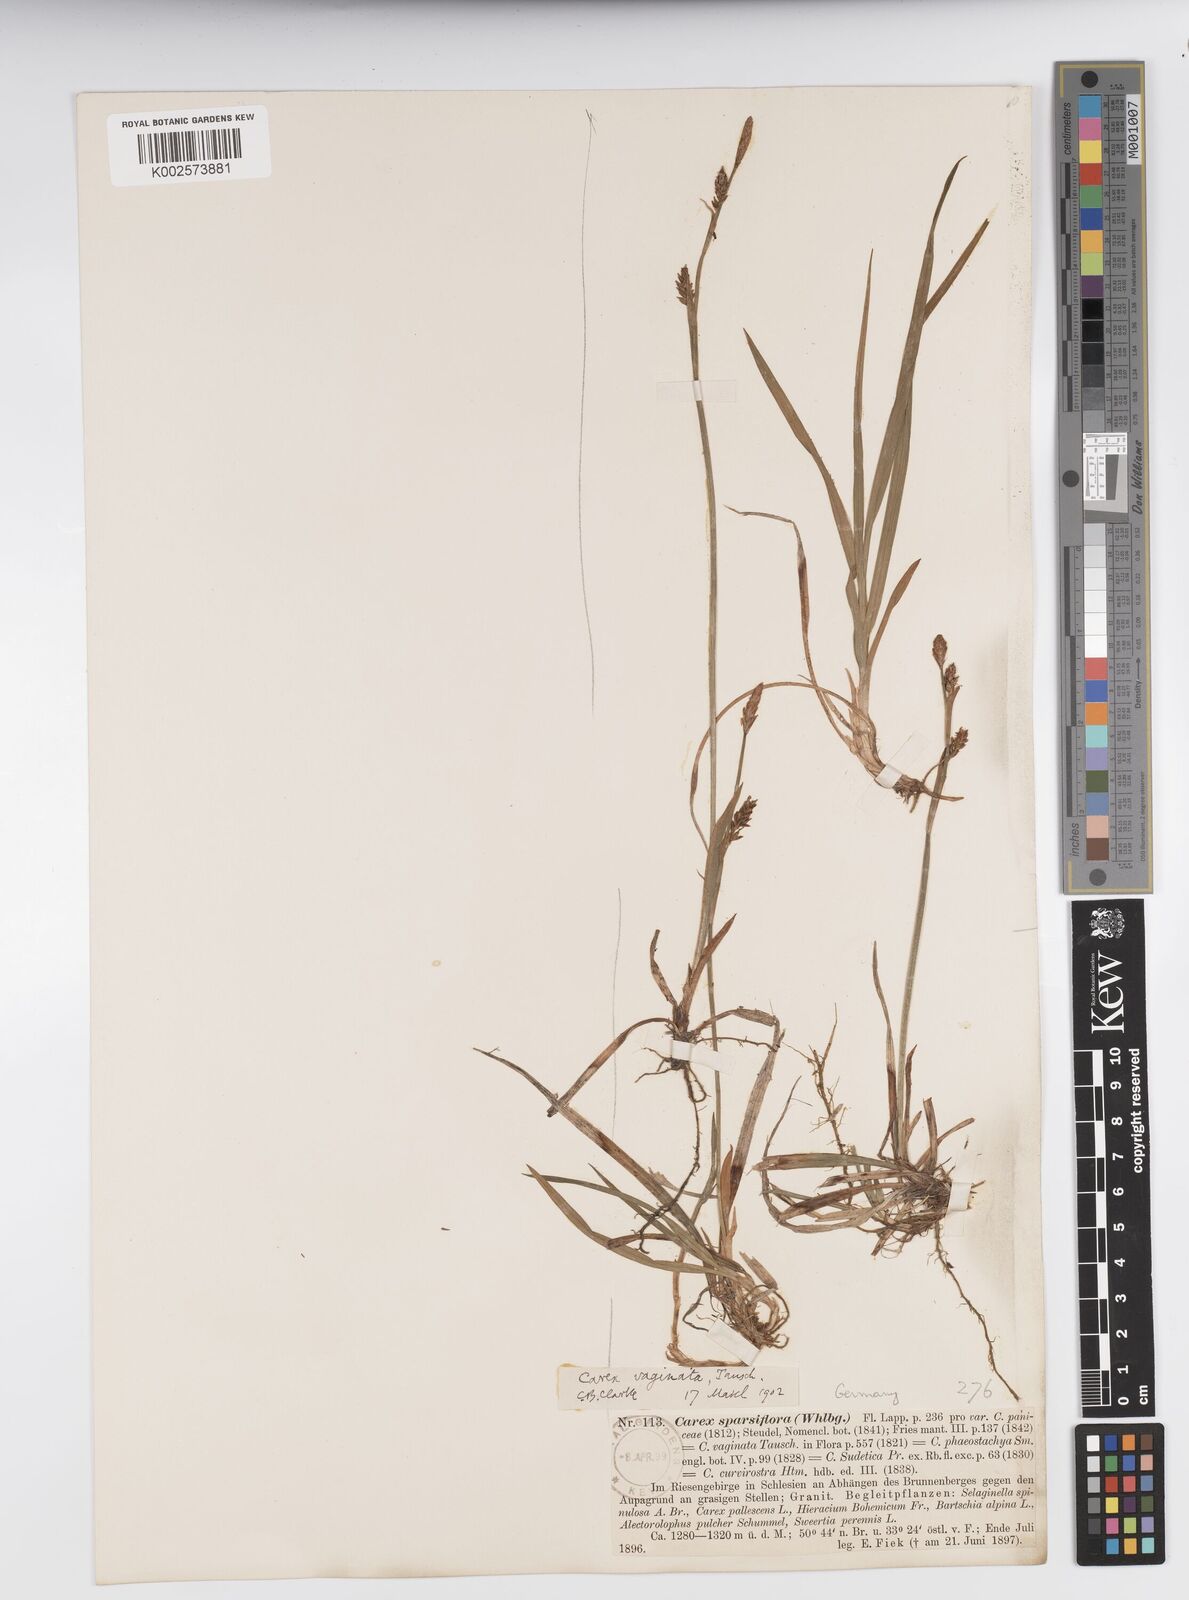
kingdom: Plantae
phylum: Tracheophyta
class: Liliopsida
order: Poales
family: Cyperaceae
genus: Carex
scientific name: Carex vaginata
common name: Sheathed sedge
